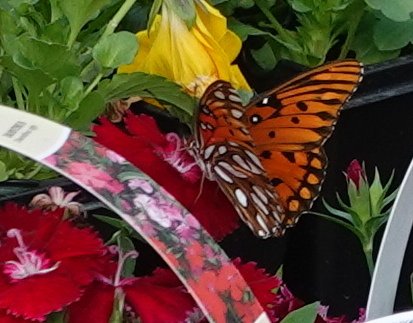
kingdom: Animalia
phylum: Arthropoda
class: Insecta
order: Lepidoptera
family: Nymphalidae
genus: Dione
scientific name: Dione vanillae
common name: Gulf Fritillary
